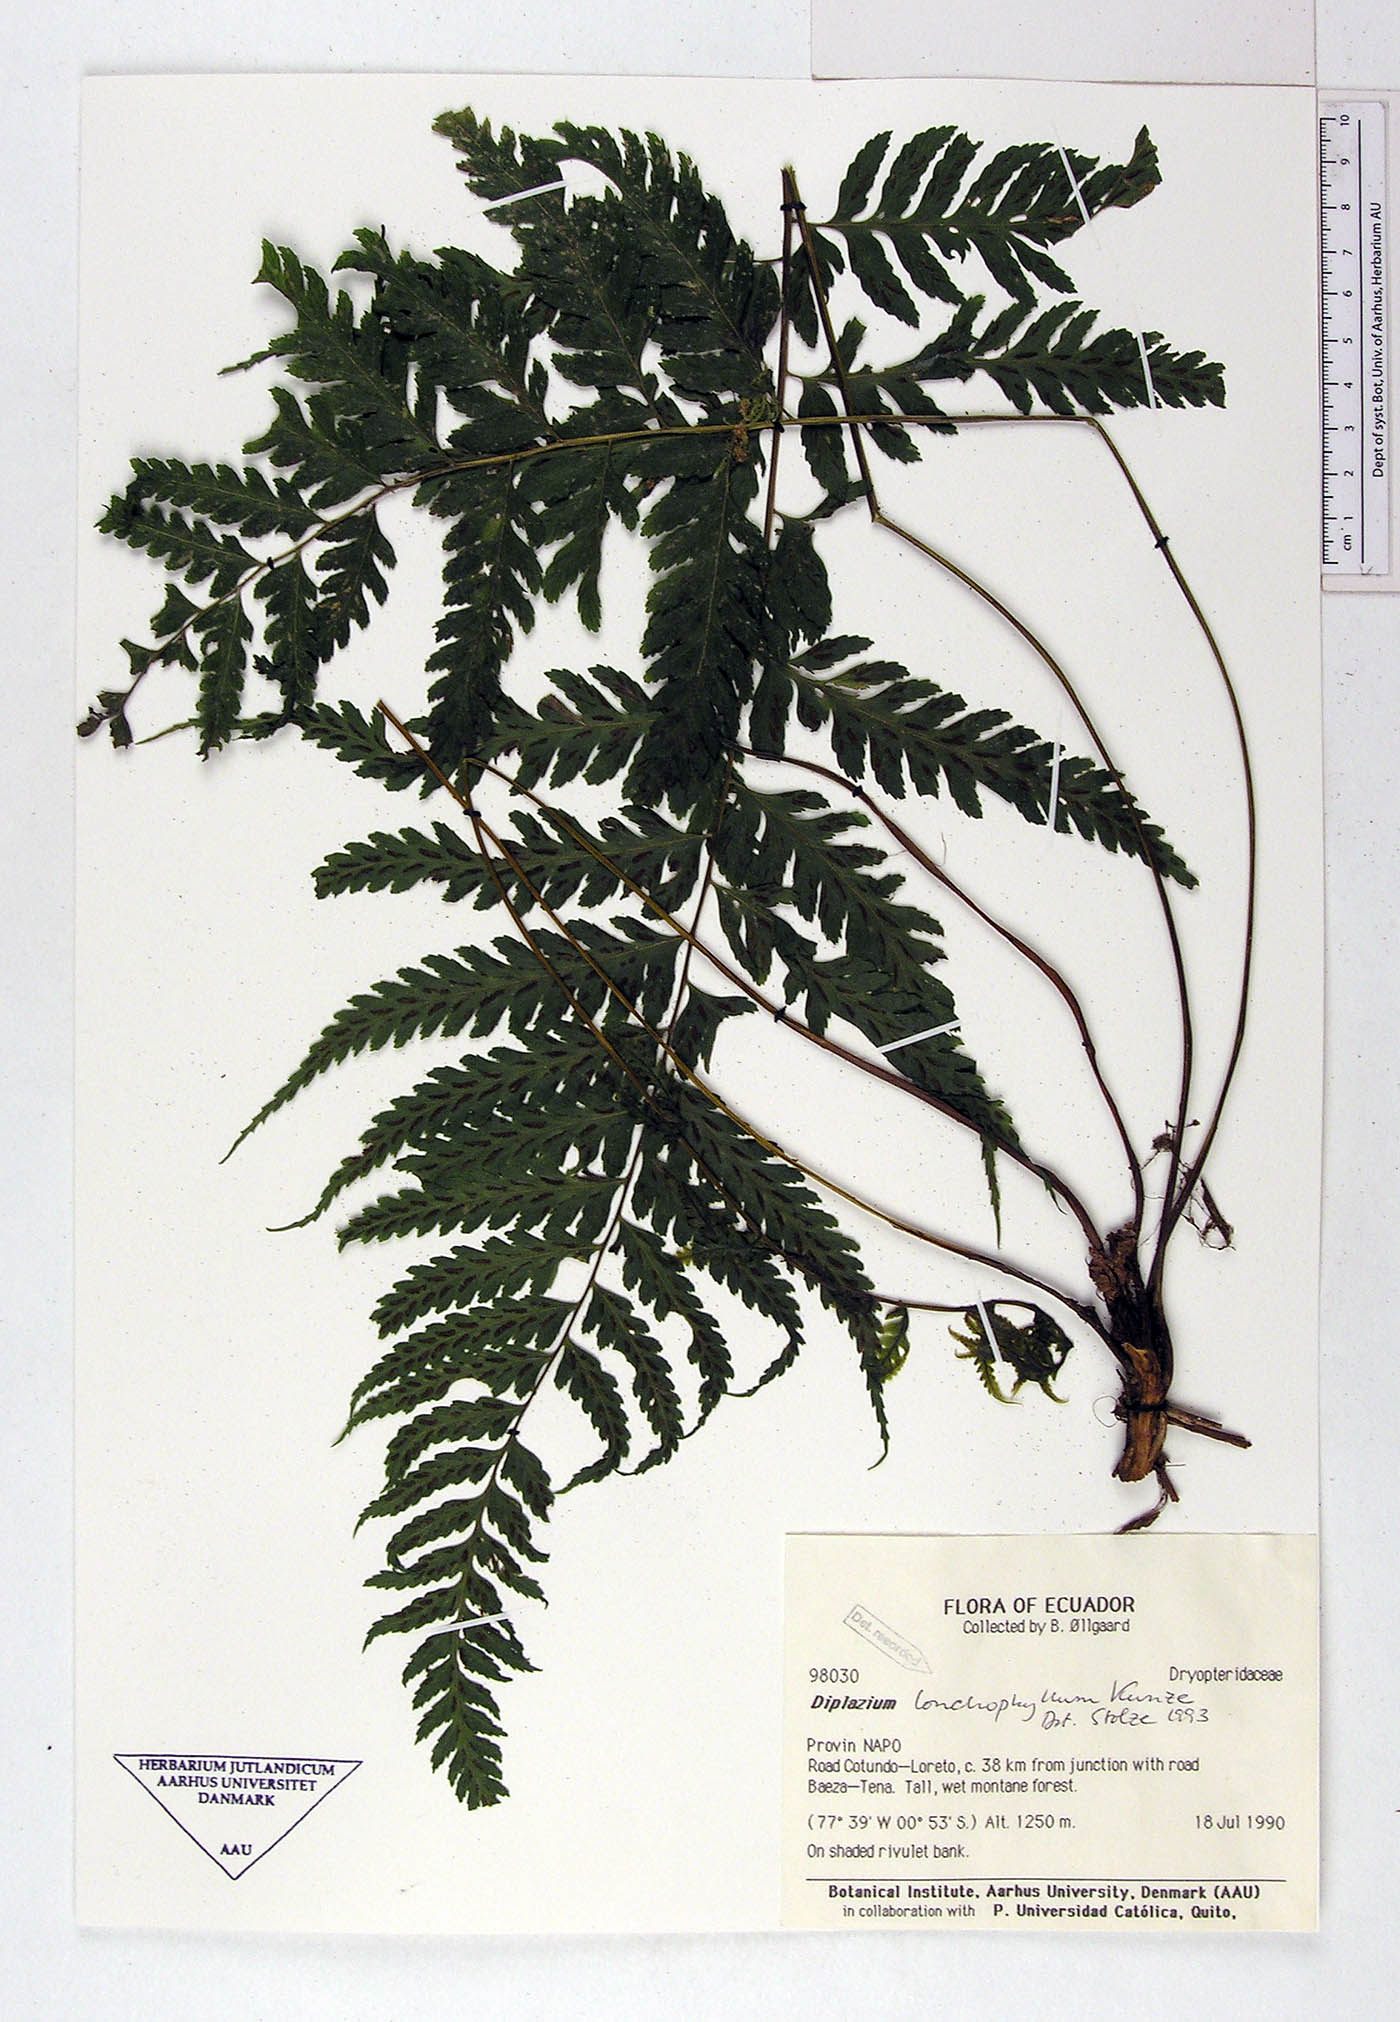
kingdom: Plantae
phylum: Tracheophyta
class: Polypodiopsida
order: Polypodiales
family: Athyriaceae
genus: Diplazium
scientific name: Diplazium lonchophyllum
